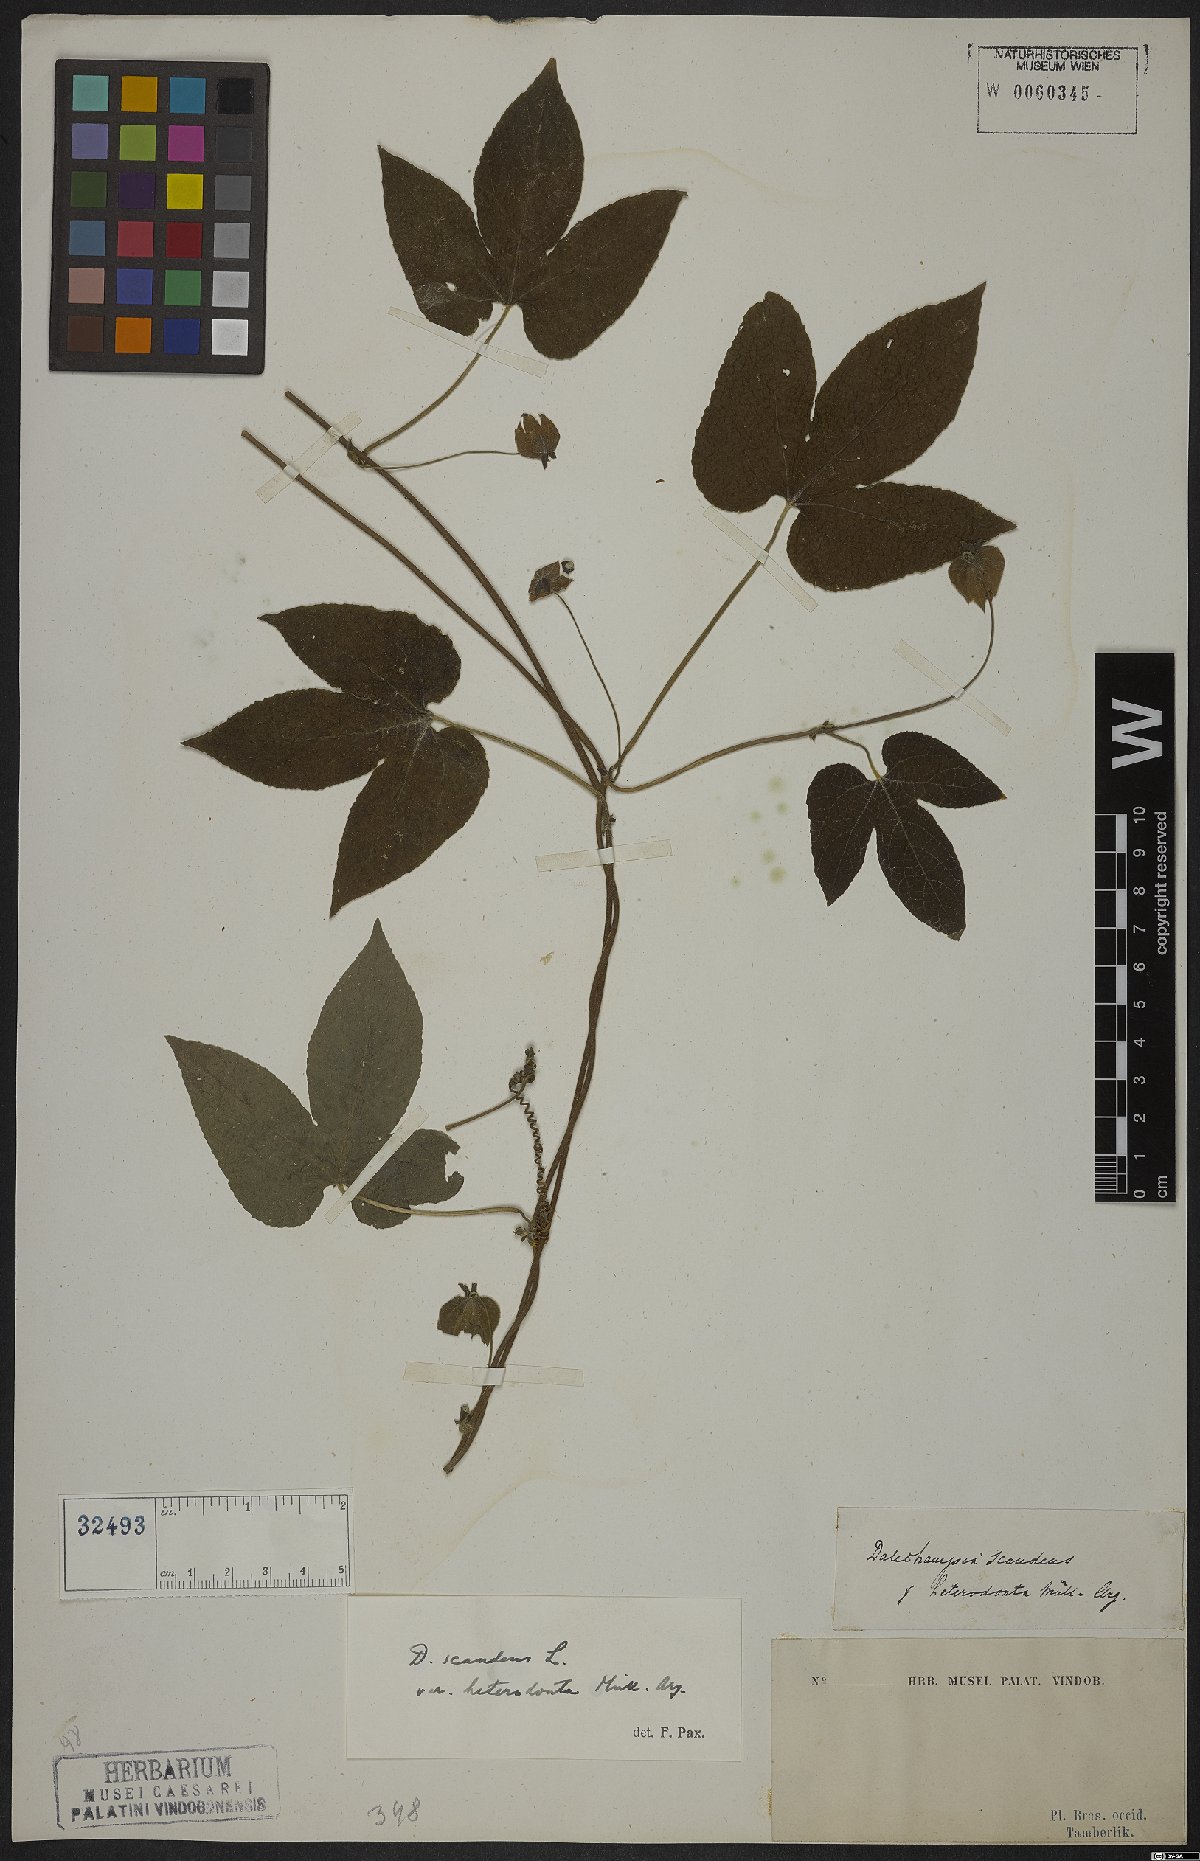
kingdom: Plantae
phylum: Tracheophyta
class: Magnoliopsida
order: Malpighiales
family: Euphorbiaceae
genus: Dalechampia
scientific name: Dalechampia scandens
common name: Spurgecreeper
